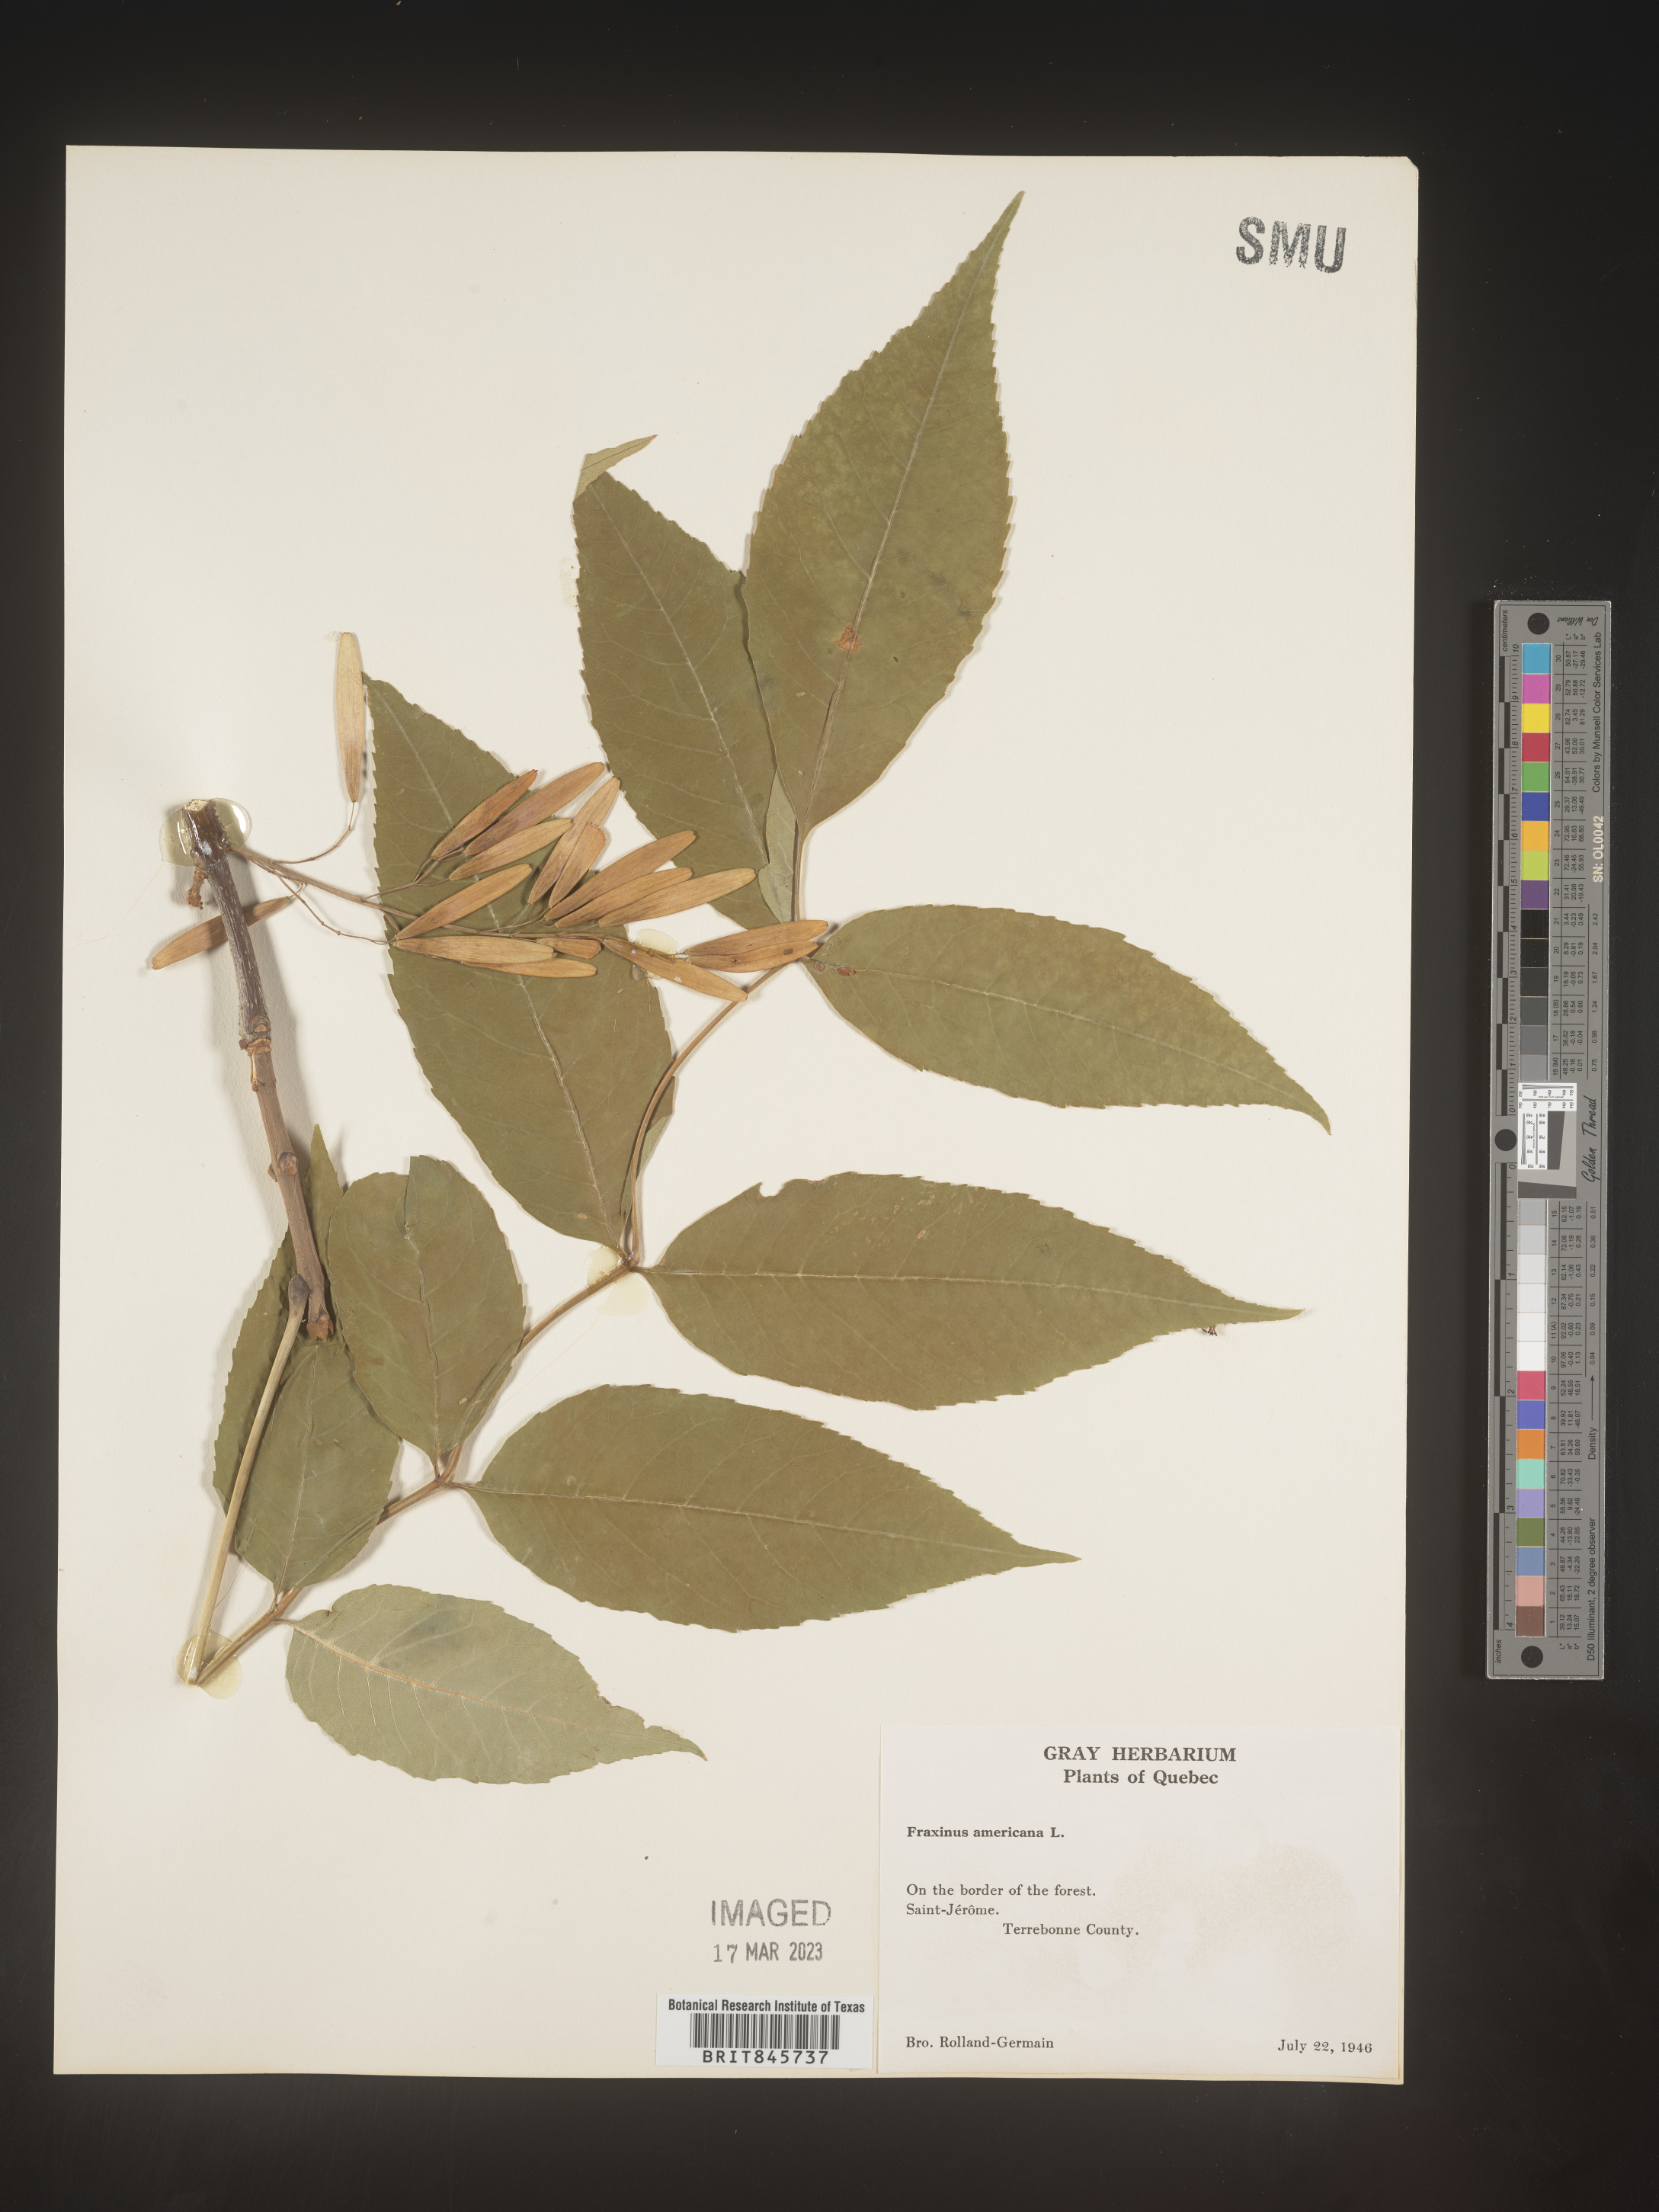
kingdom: Plantae
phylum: Tracheophyta
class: Magnoliopsida
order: Lamiales
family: Oleaceae
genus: Fraxinus
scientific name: Fraxinus americana
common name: White ash
